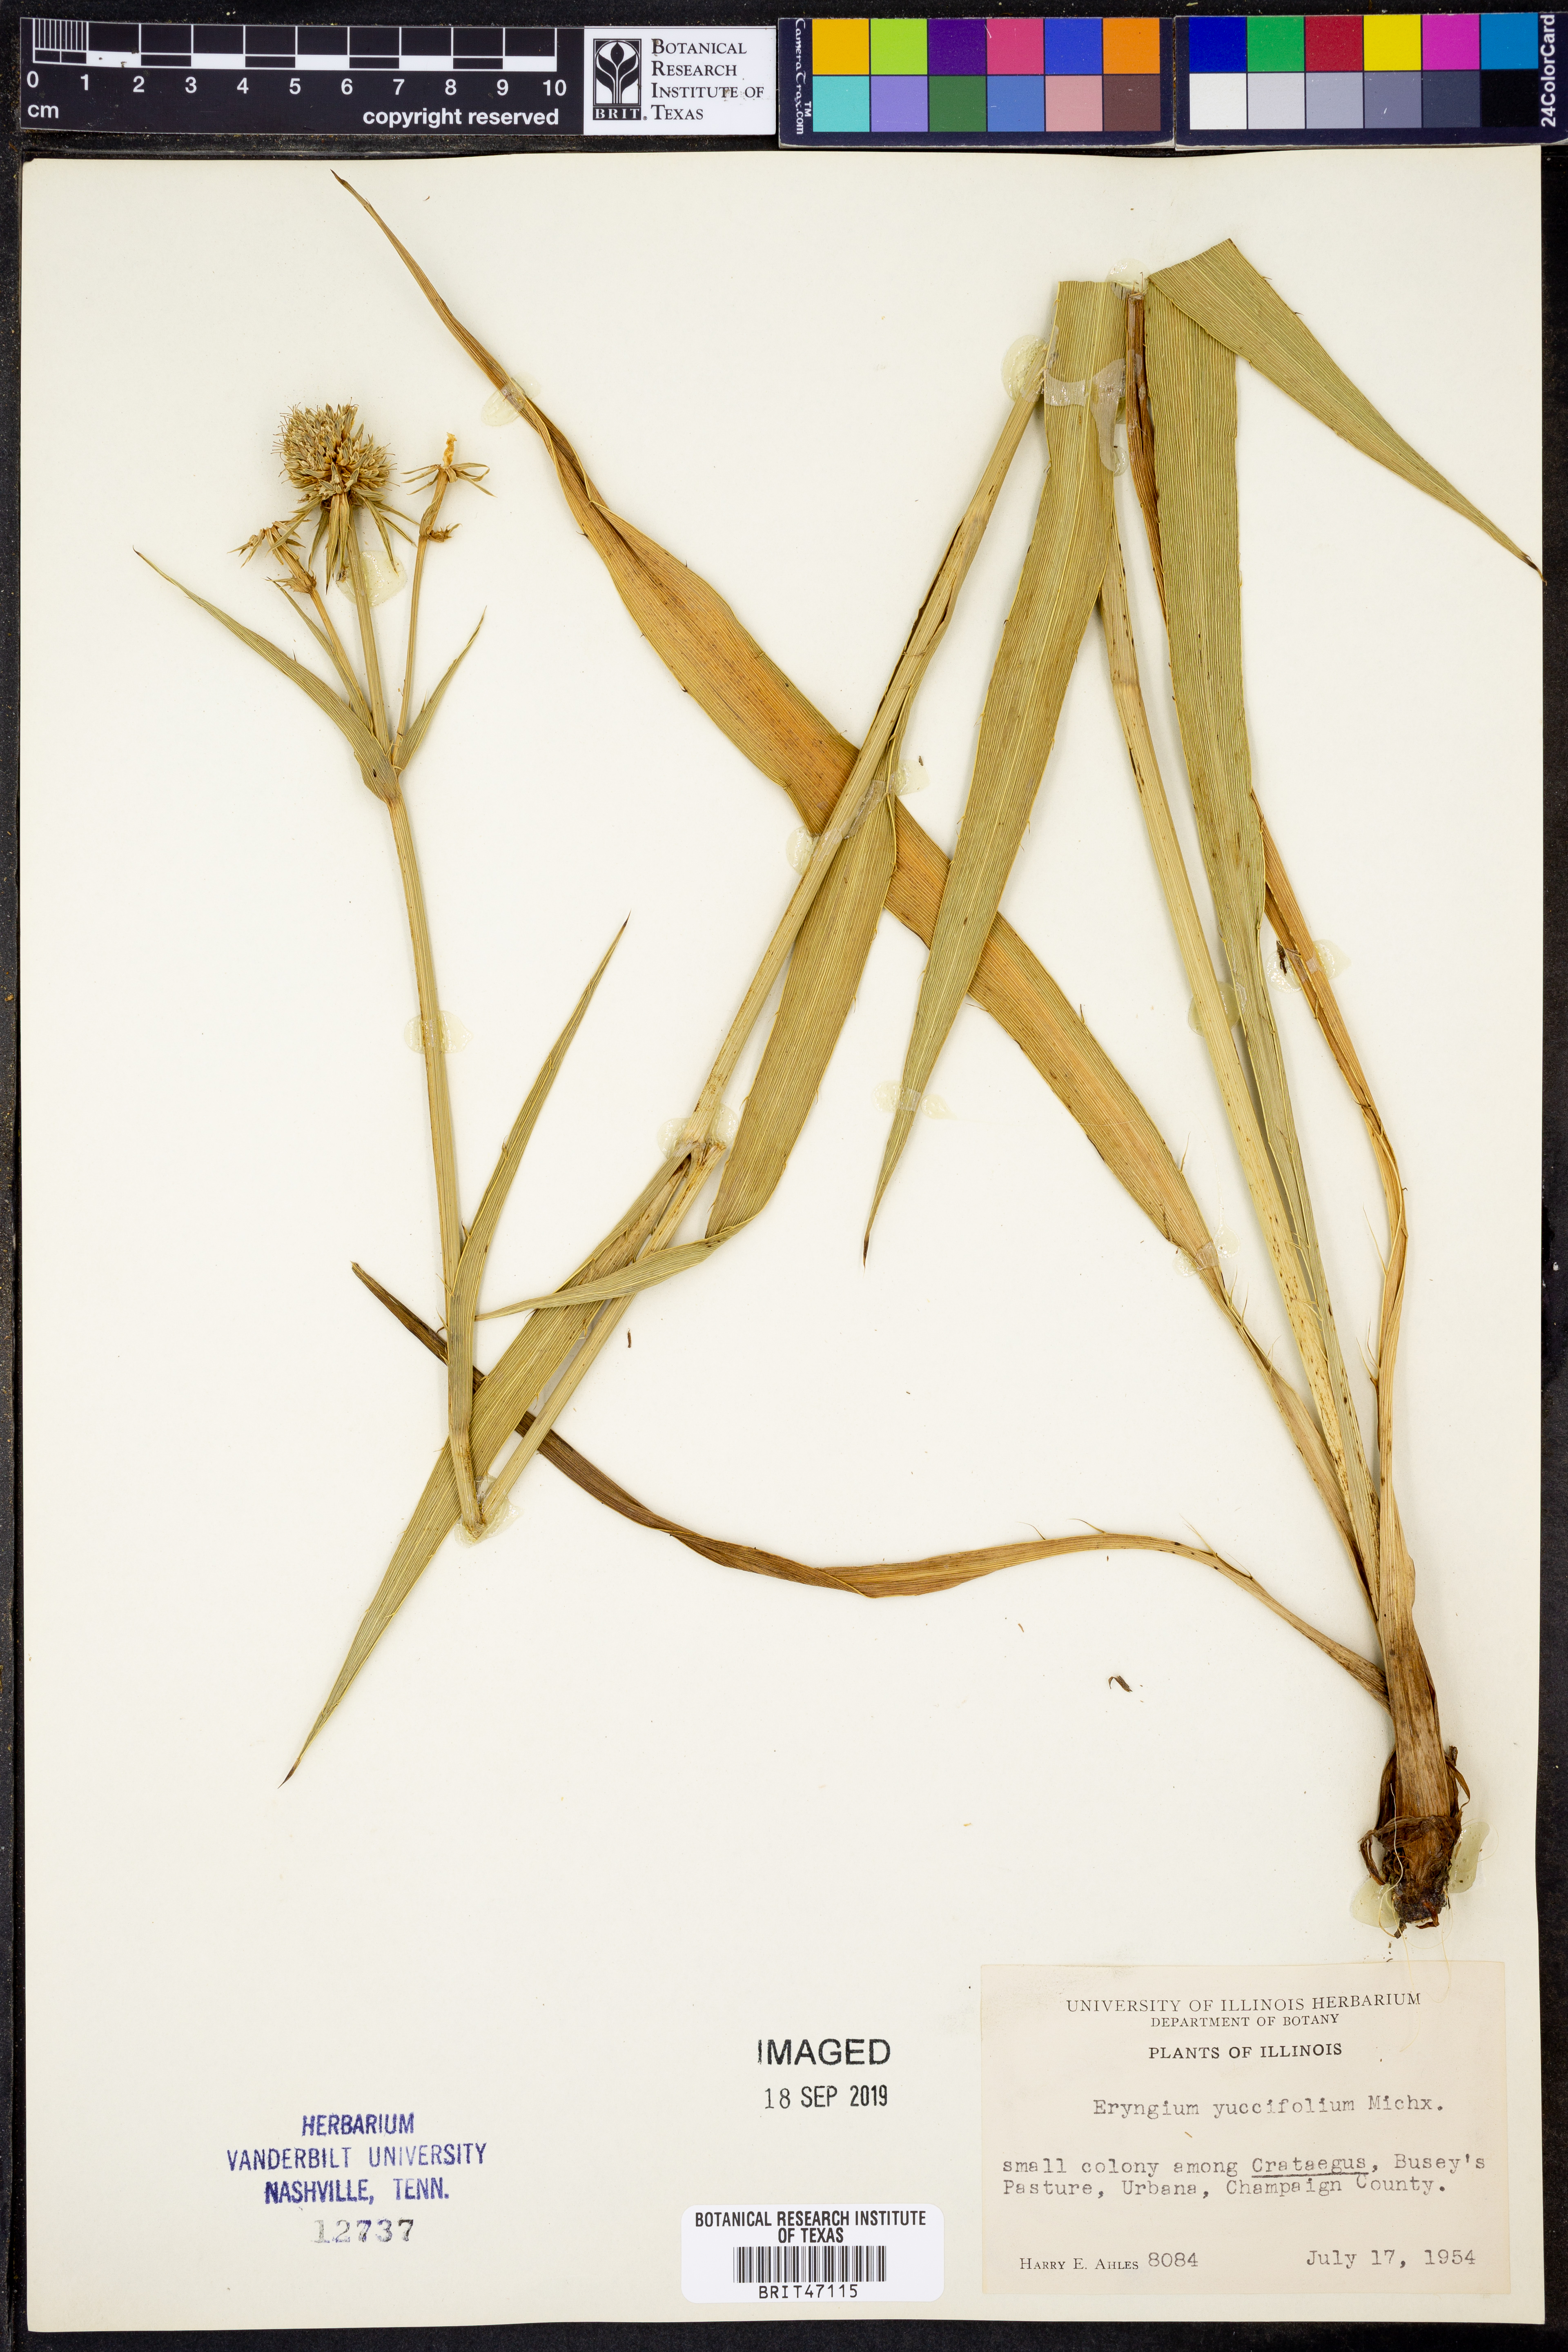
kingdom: Plantae
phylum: Tracheophyta
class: Magnoliopsida
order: Apiales
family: Apiaceae
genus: Eryngium
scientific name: Eryngium yuccifolium
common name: Button eryngo
